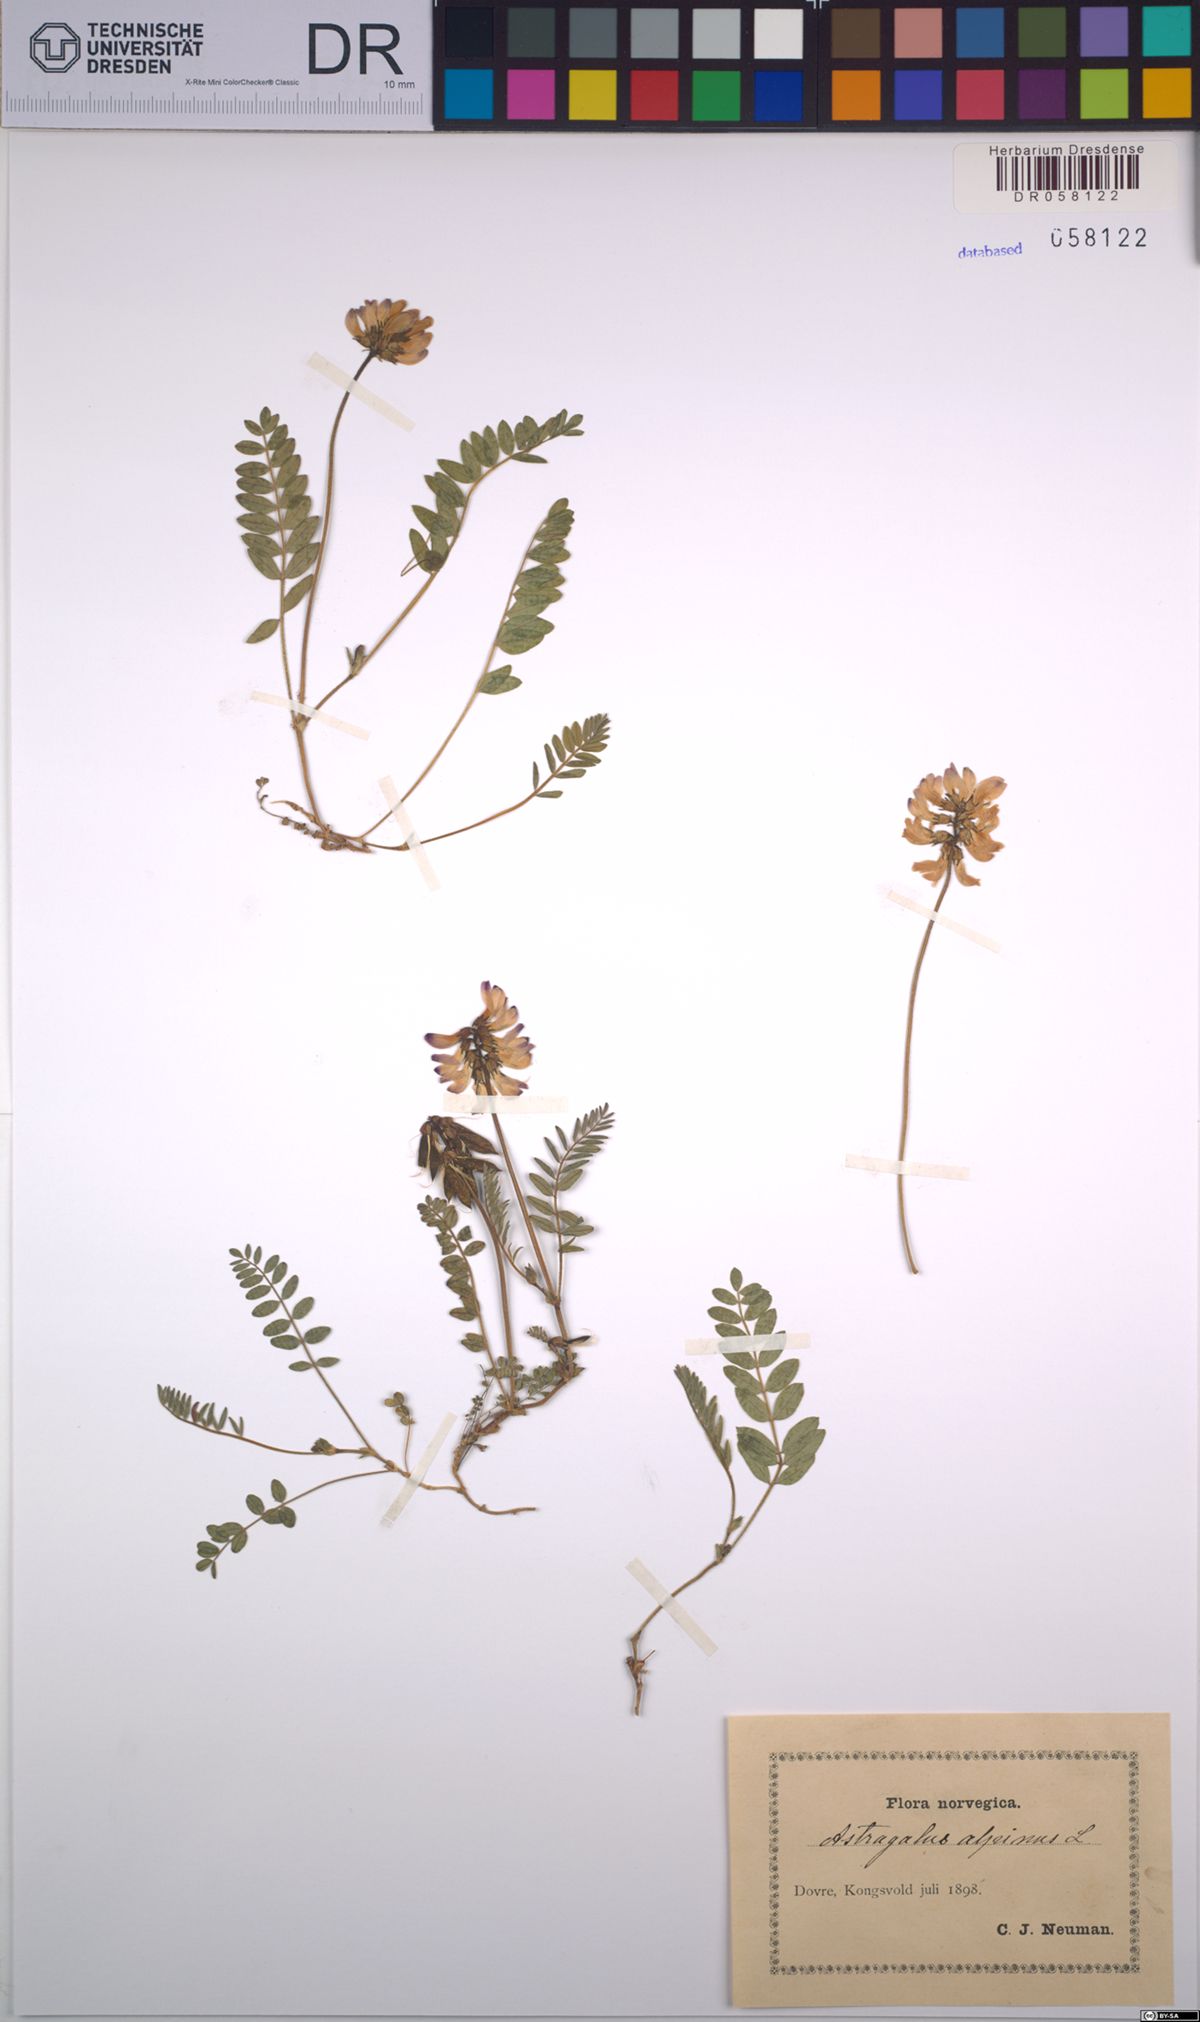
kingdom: Plantae
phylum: Tracheophyta
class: Magnoliopsida
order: Fabales
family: Fabaceae
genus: Astragalus
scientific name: Astragalus alpinus
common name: Alpine milk-vetch
